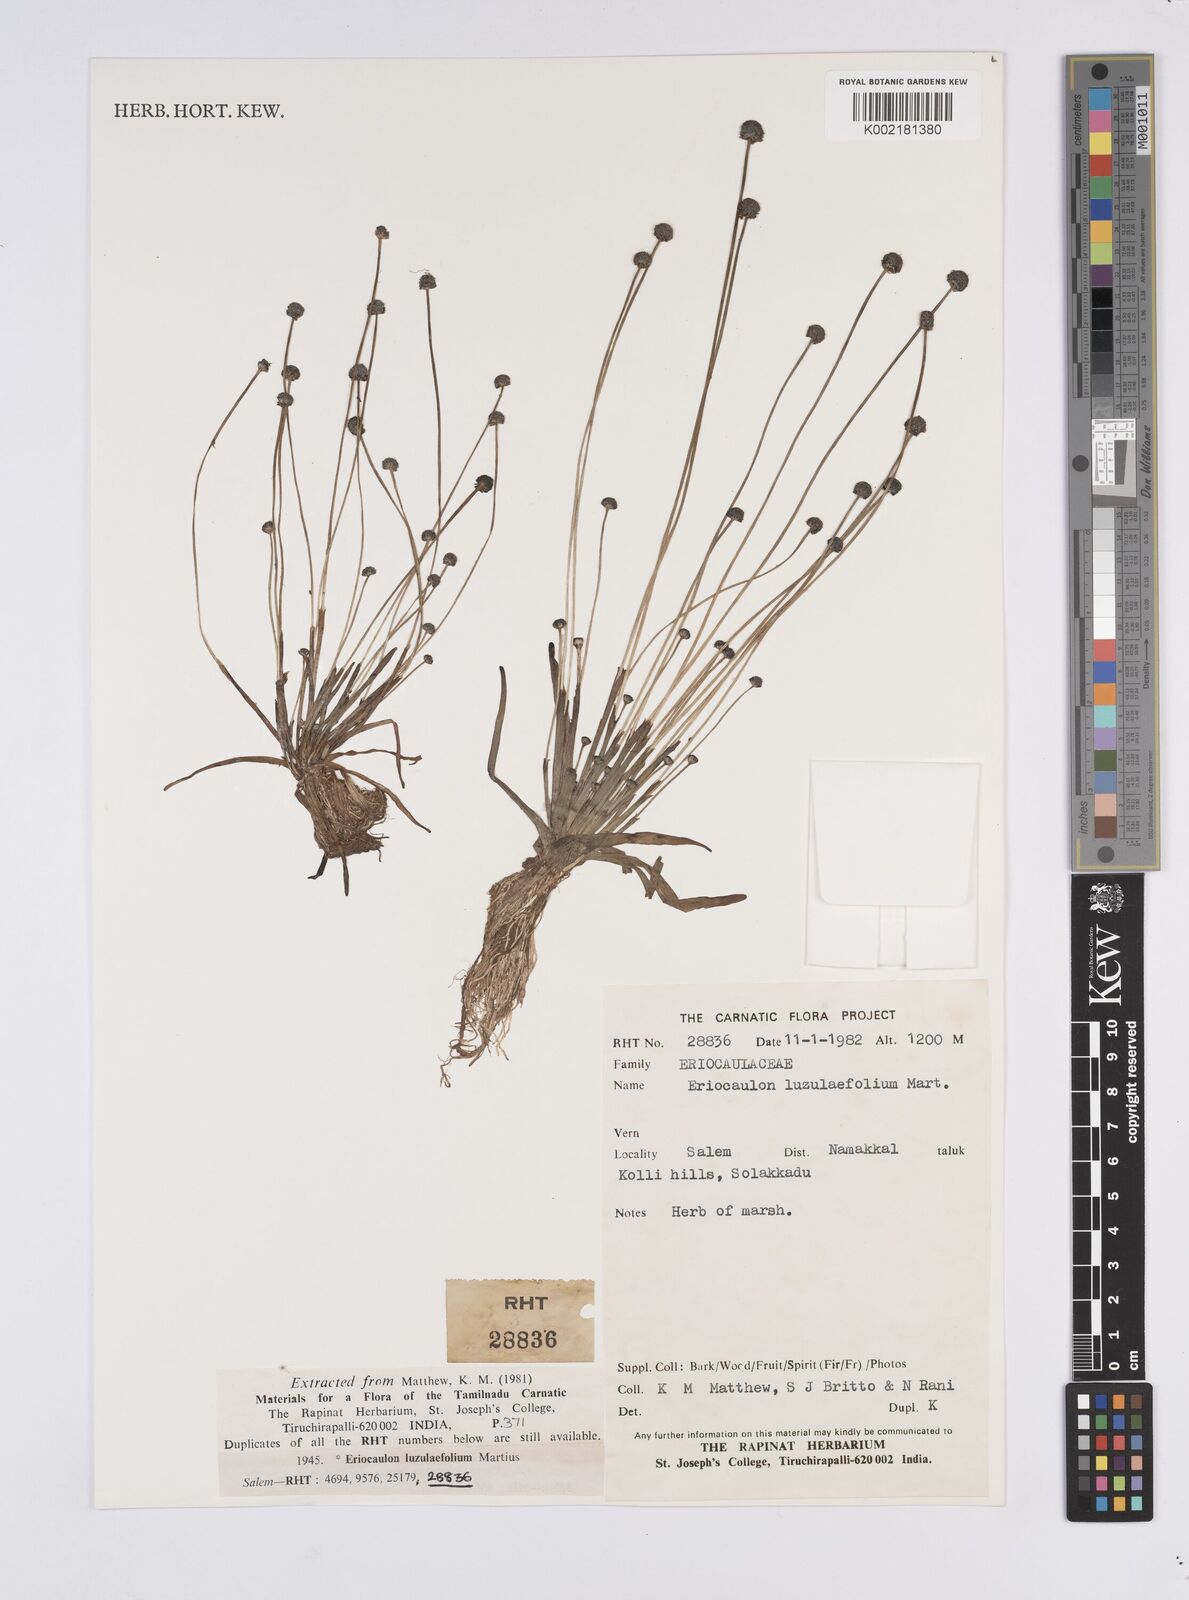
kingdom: Plantae
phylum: Tracheophyta
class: Liliopsida
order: Poales
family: Eriocaulaceae
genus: Eriocaulon
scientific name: Eriocaulon nepalense
